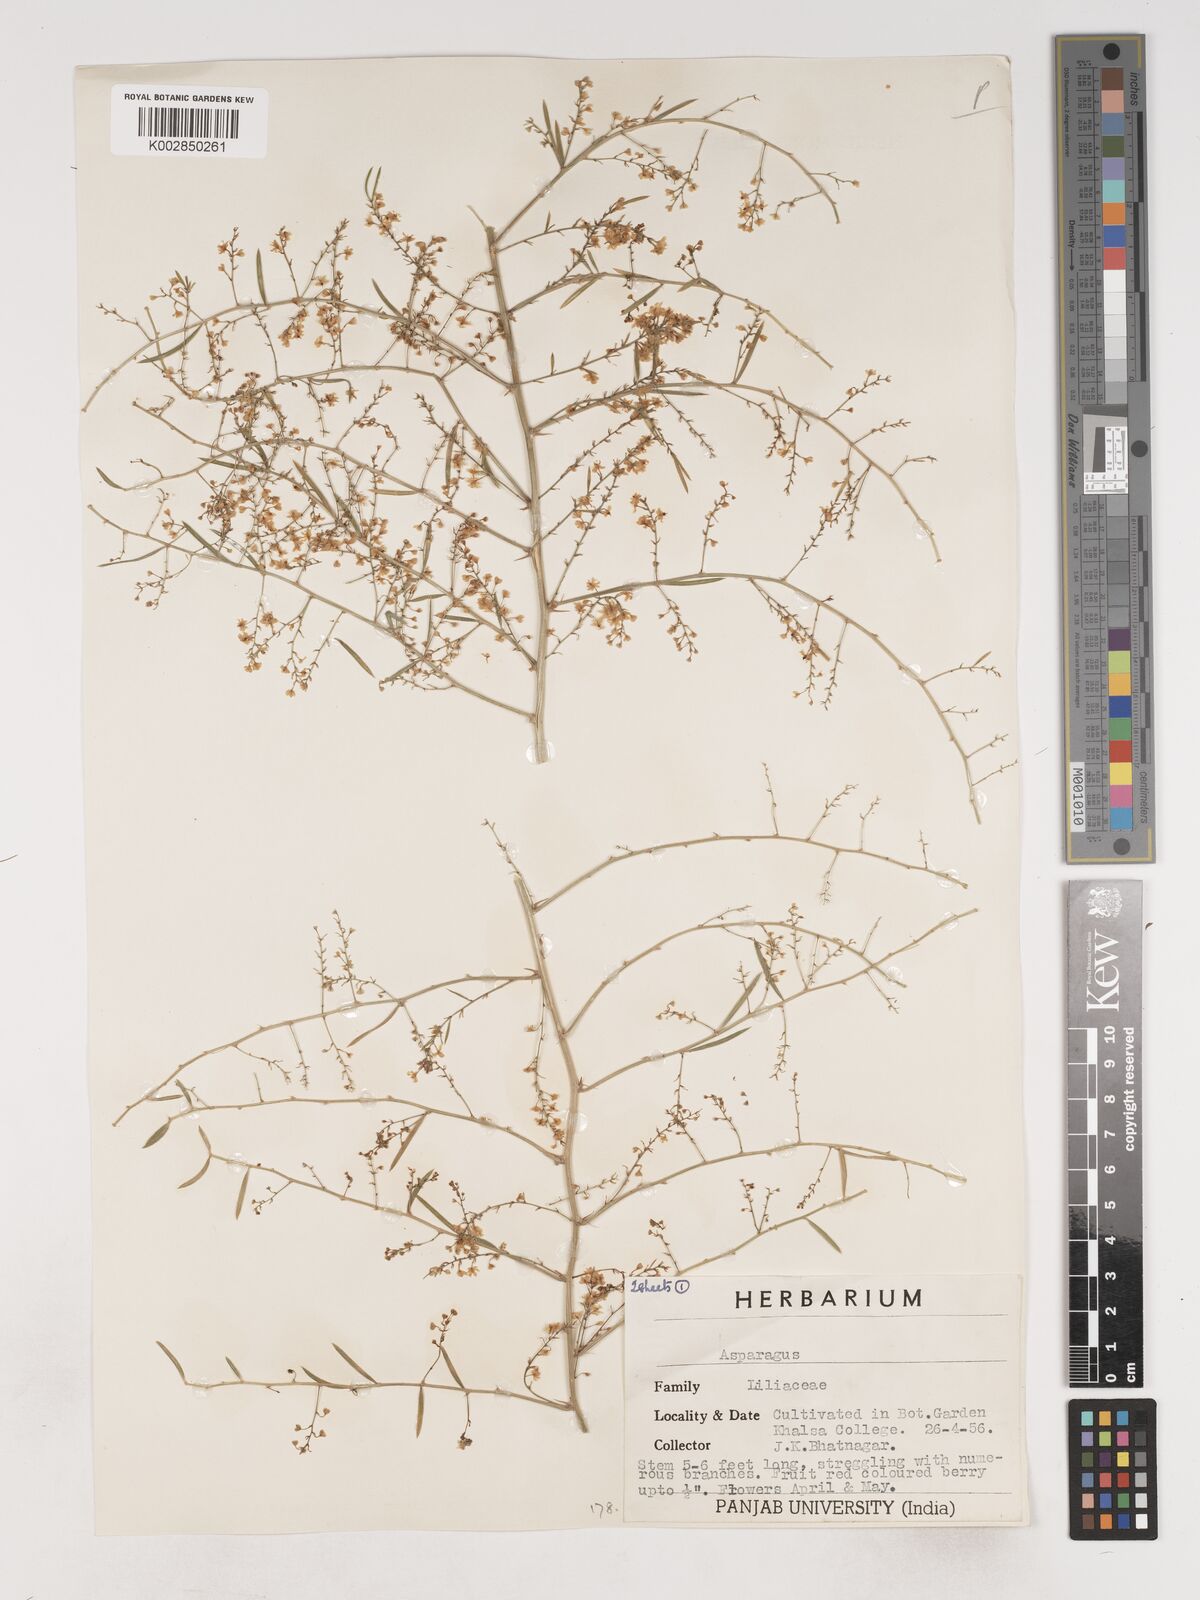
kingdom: Plantae
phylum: Tracheophyta
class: Liliopsida
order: Asparagales
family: Asparagaceae
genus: Asparagus
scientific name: Asparagus
